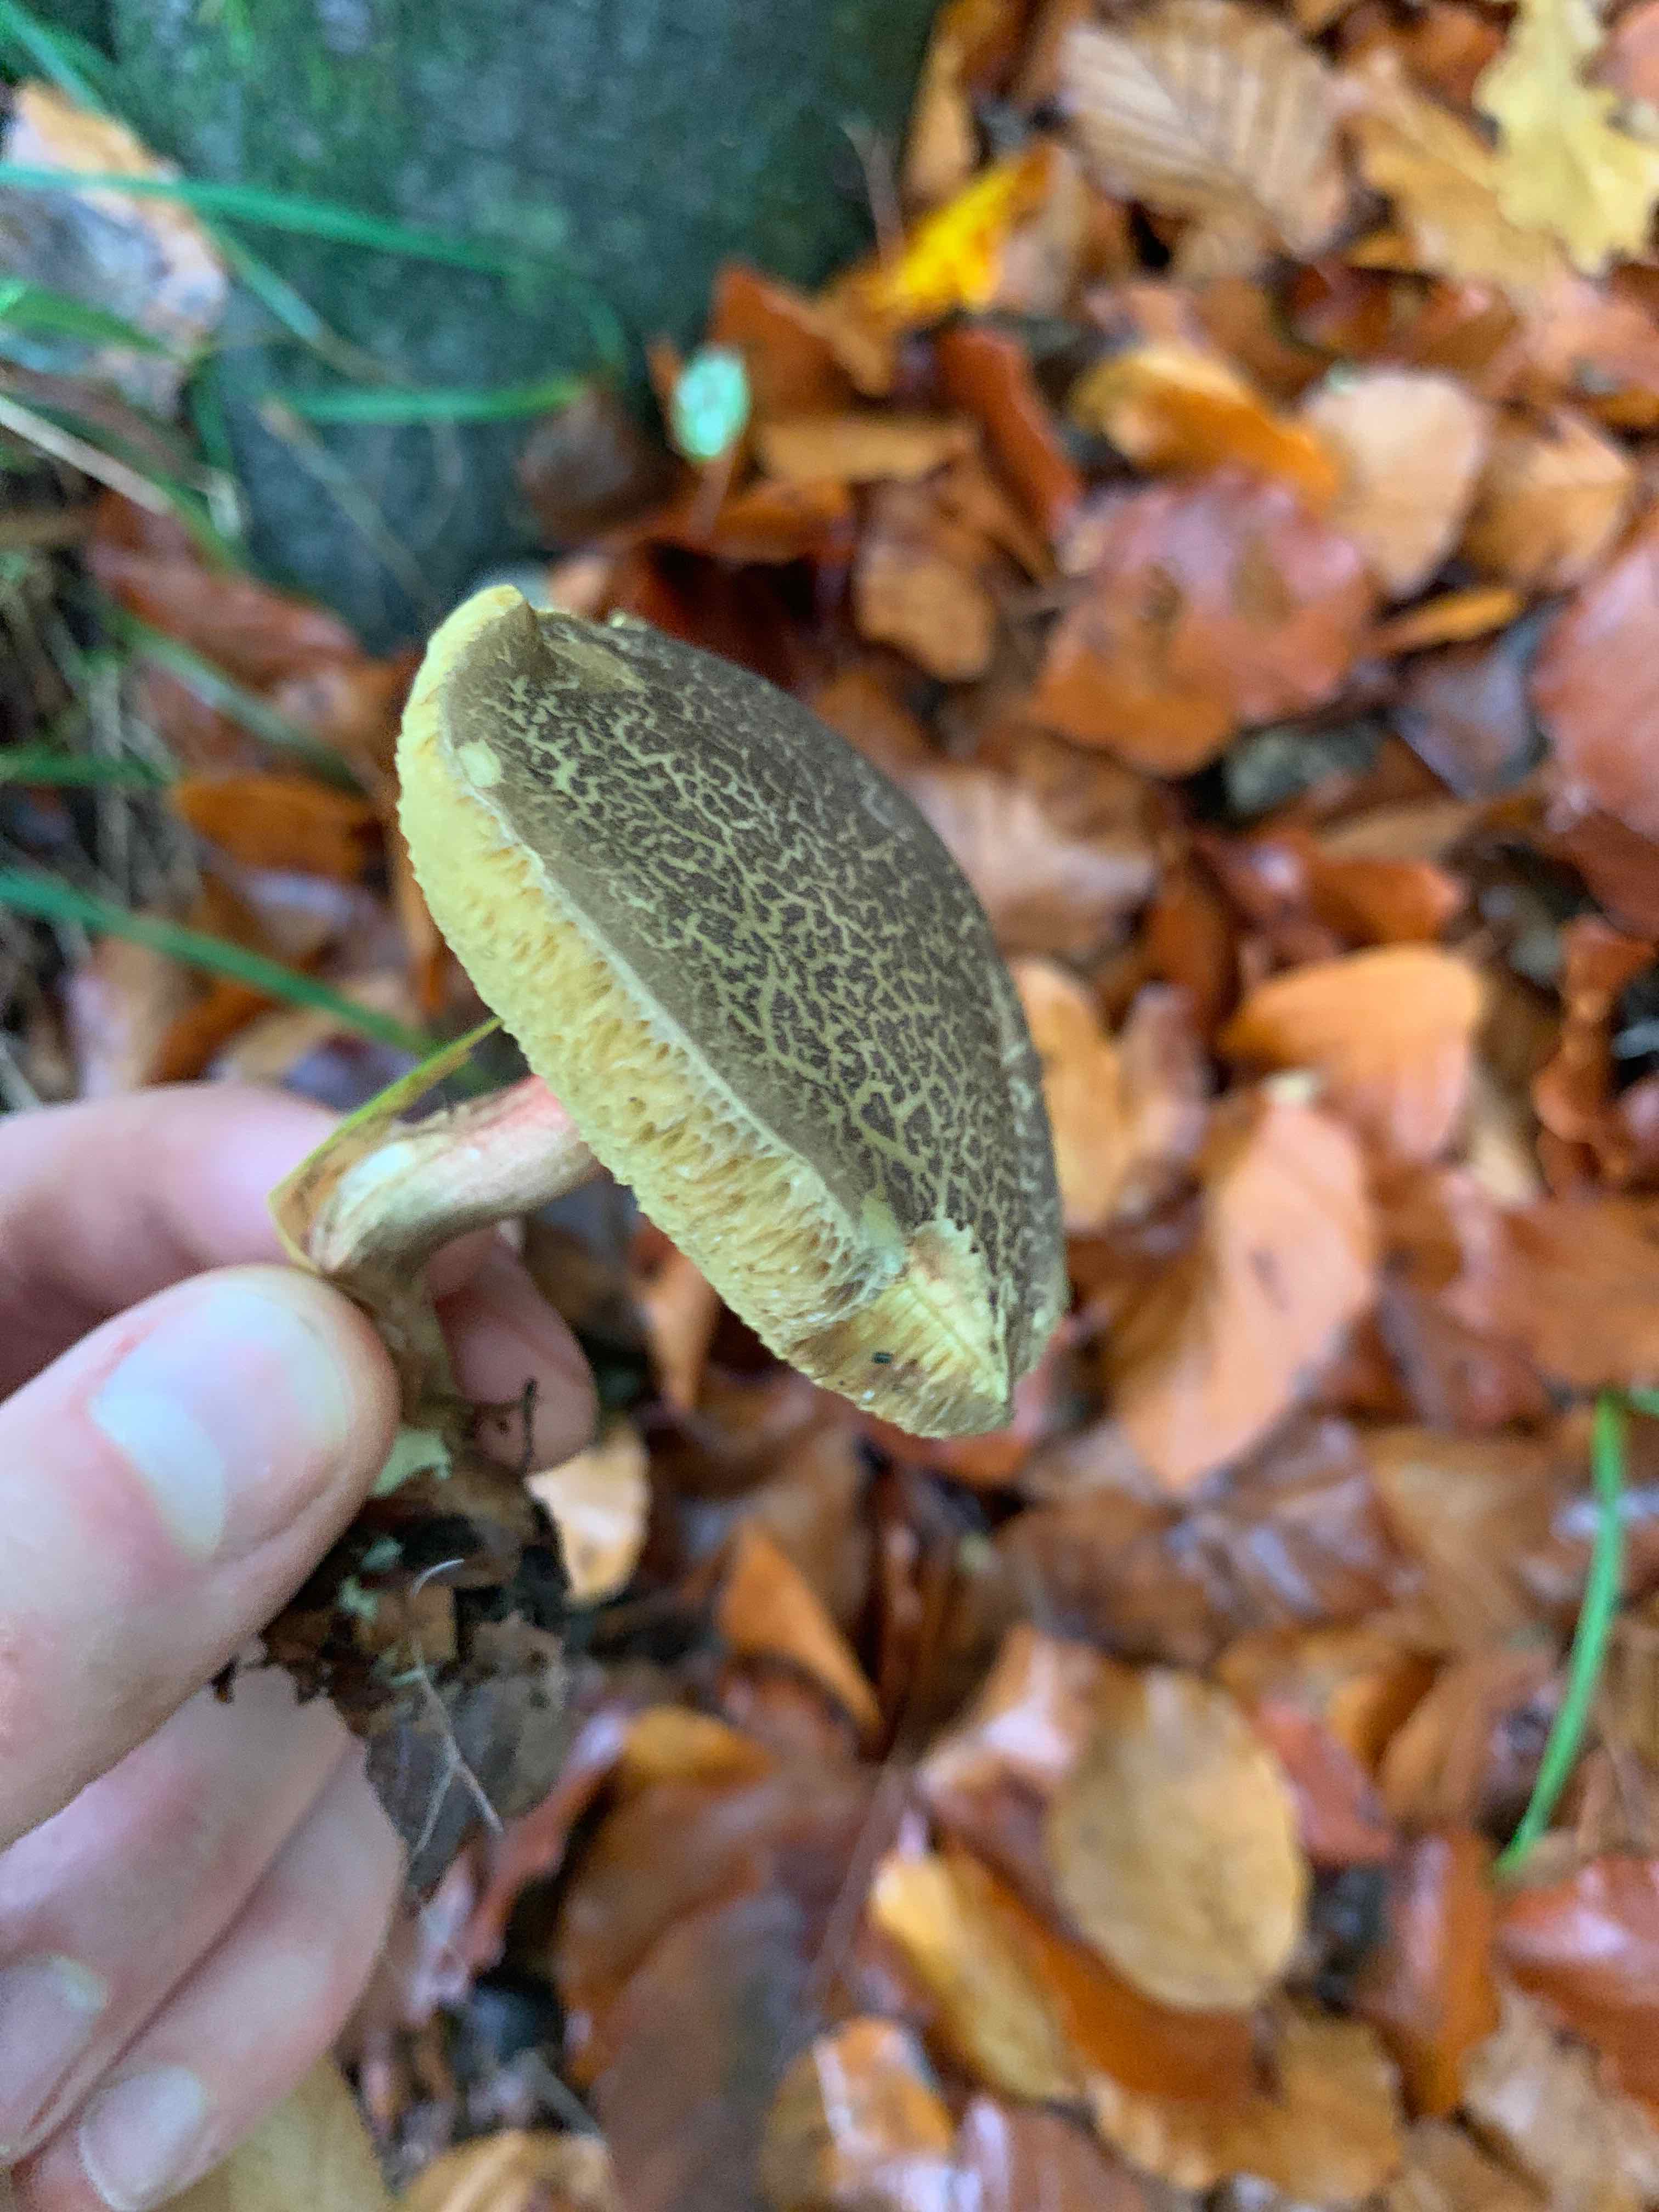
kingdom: Fungi
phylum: Basidiomycota
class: Agaricomycetes
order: Boletales
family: Boletaceae
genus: Xerocomellus
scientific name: Xerocomellus
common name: dværgrørhat
